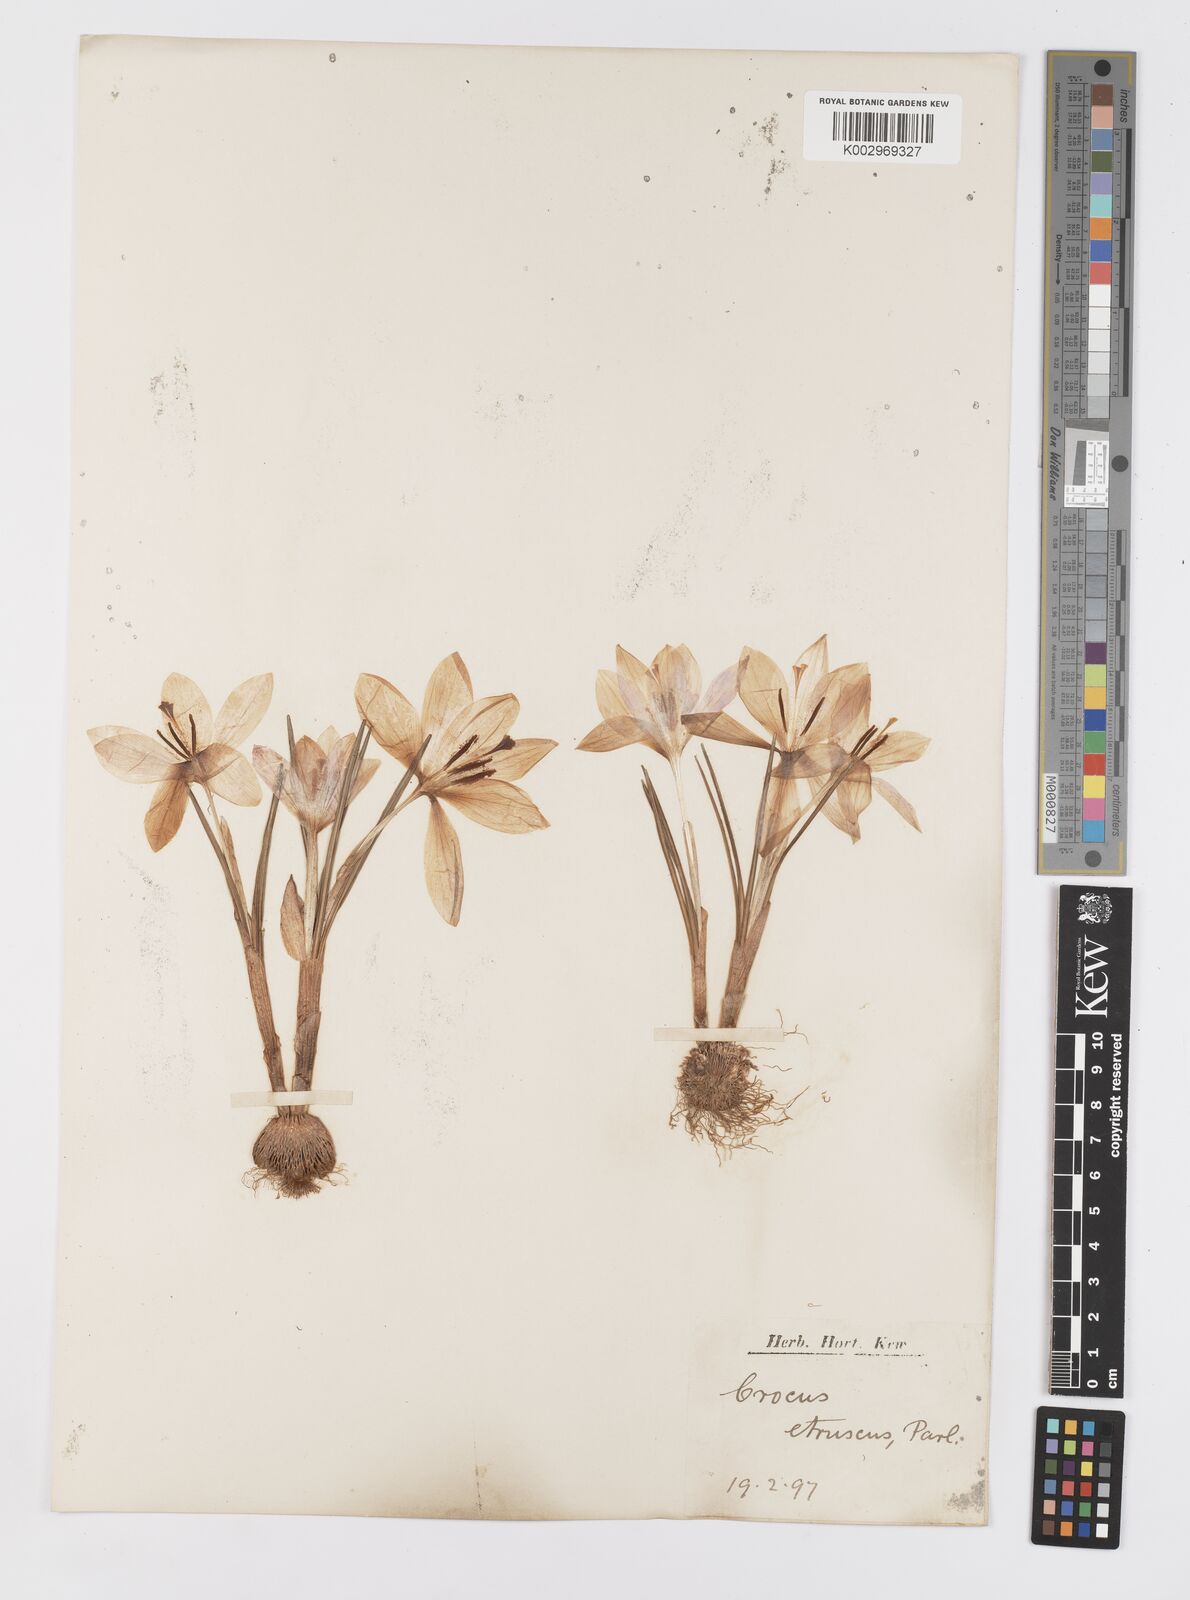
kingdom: Plantae
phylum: Tracheophyta
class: Liliopsida
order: Asparagales
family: Iridaceae
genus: Crocus
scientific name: Crocus etruscus
